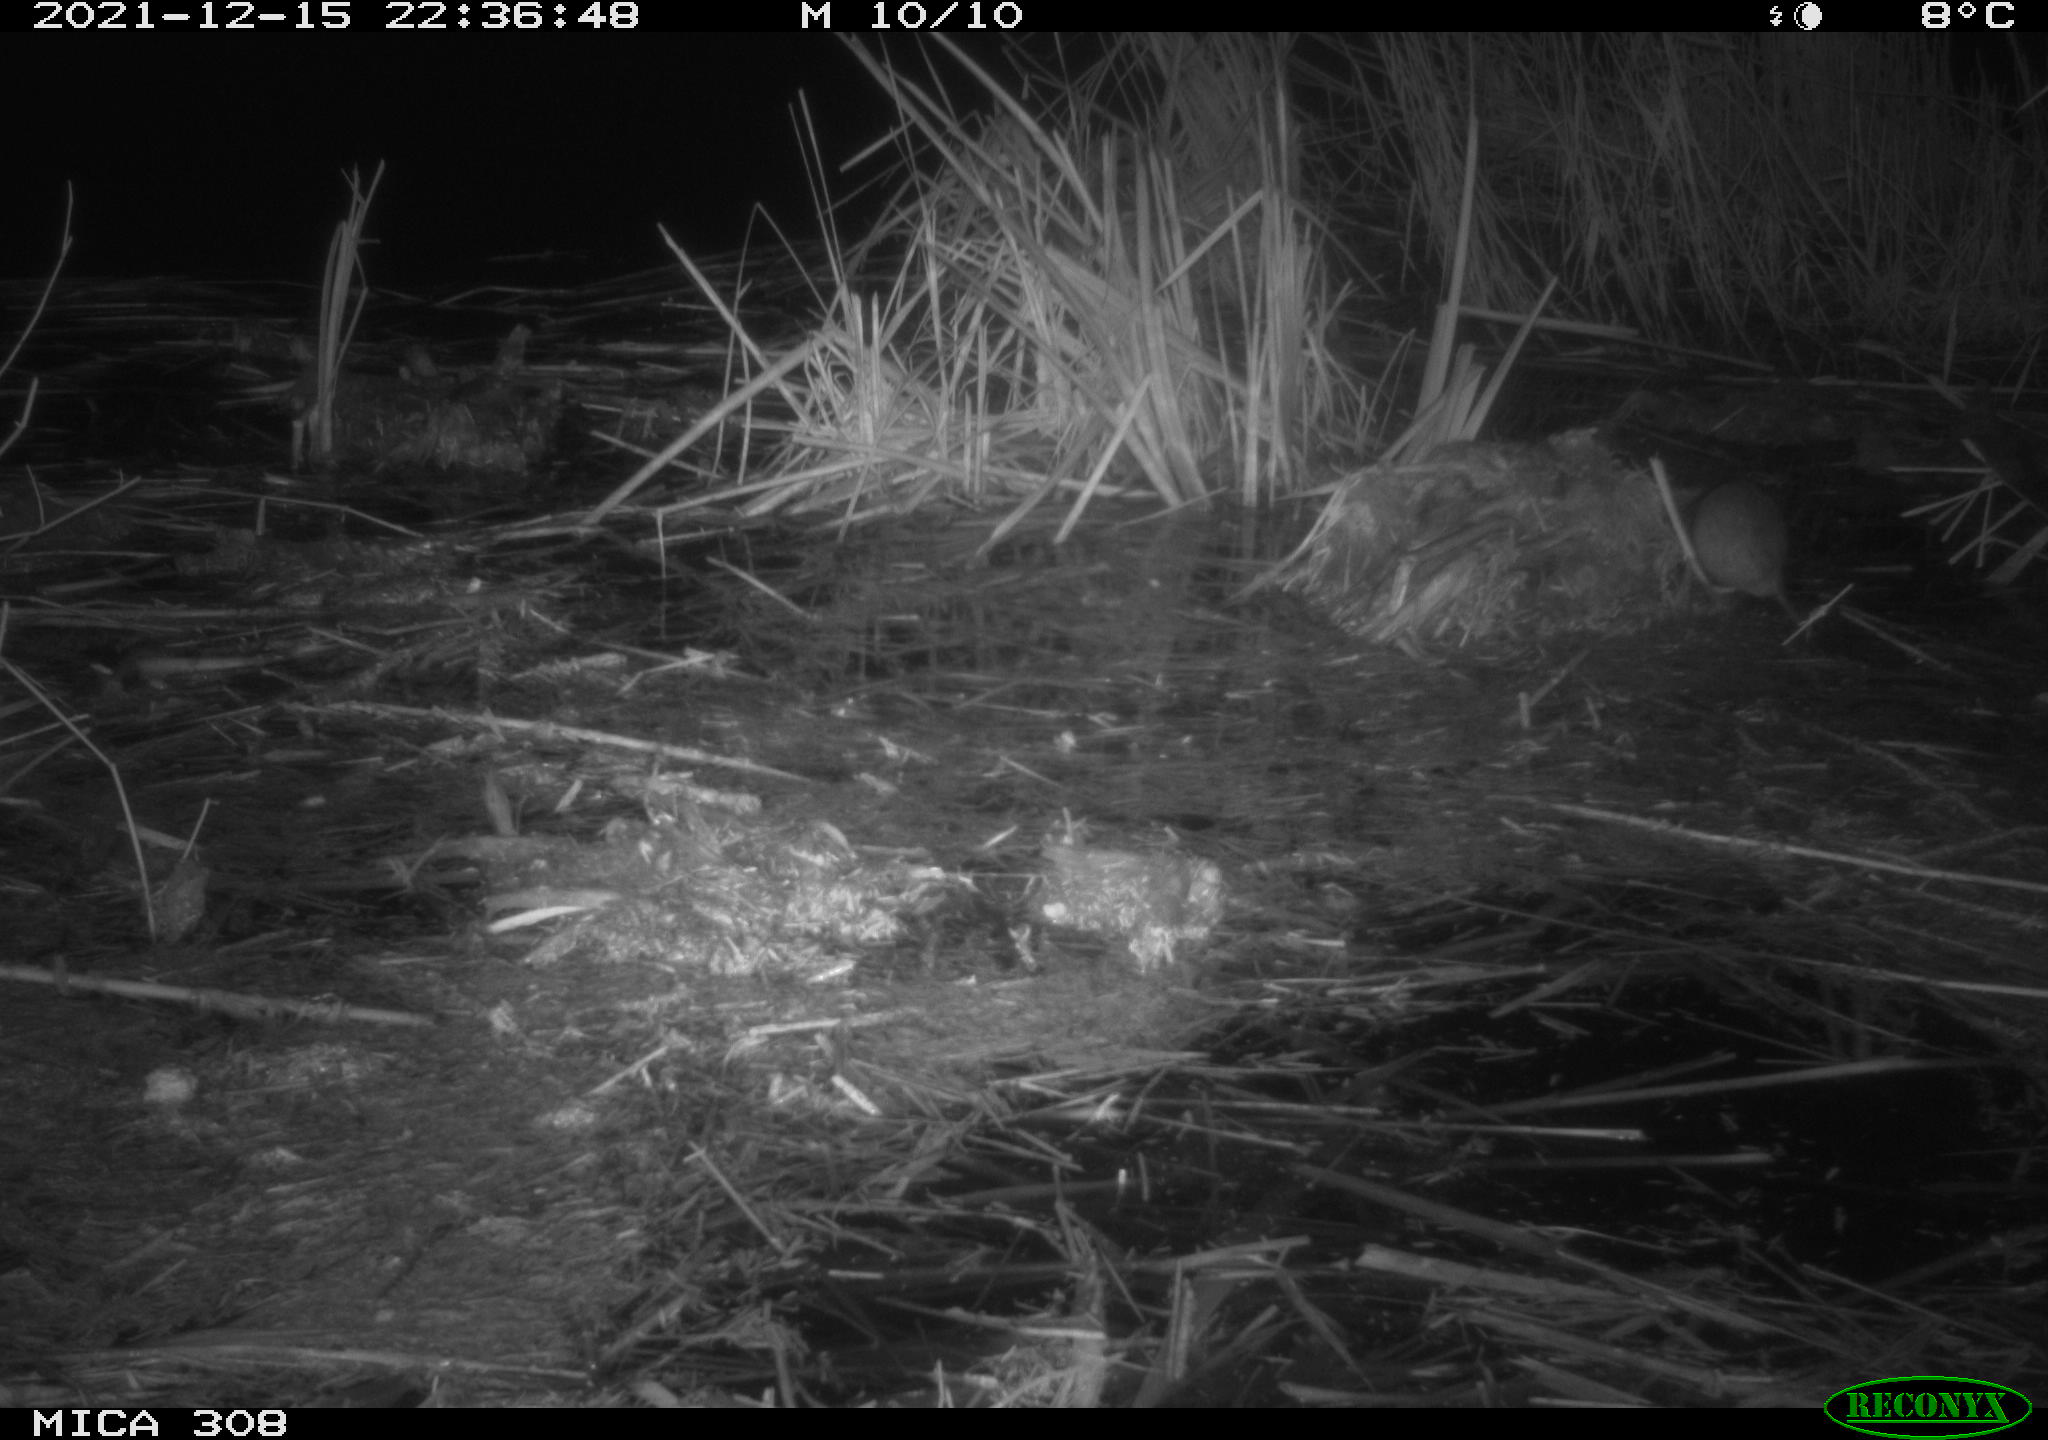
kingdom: Animalia
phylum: Chordata
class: Mammalia
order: Rodentia
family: Muridae
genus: Rattus
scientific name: Rattus norvegicus
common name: Brown rat
